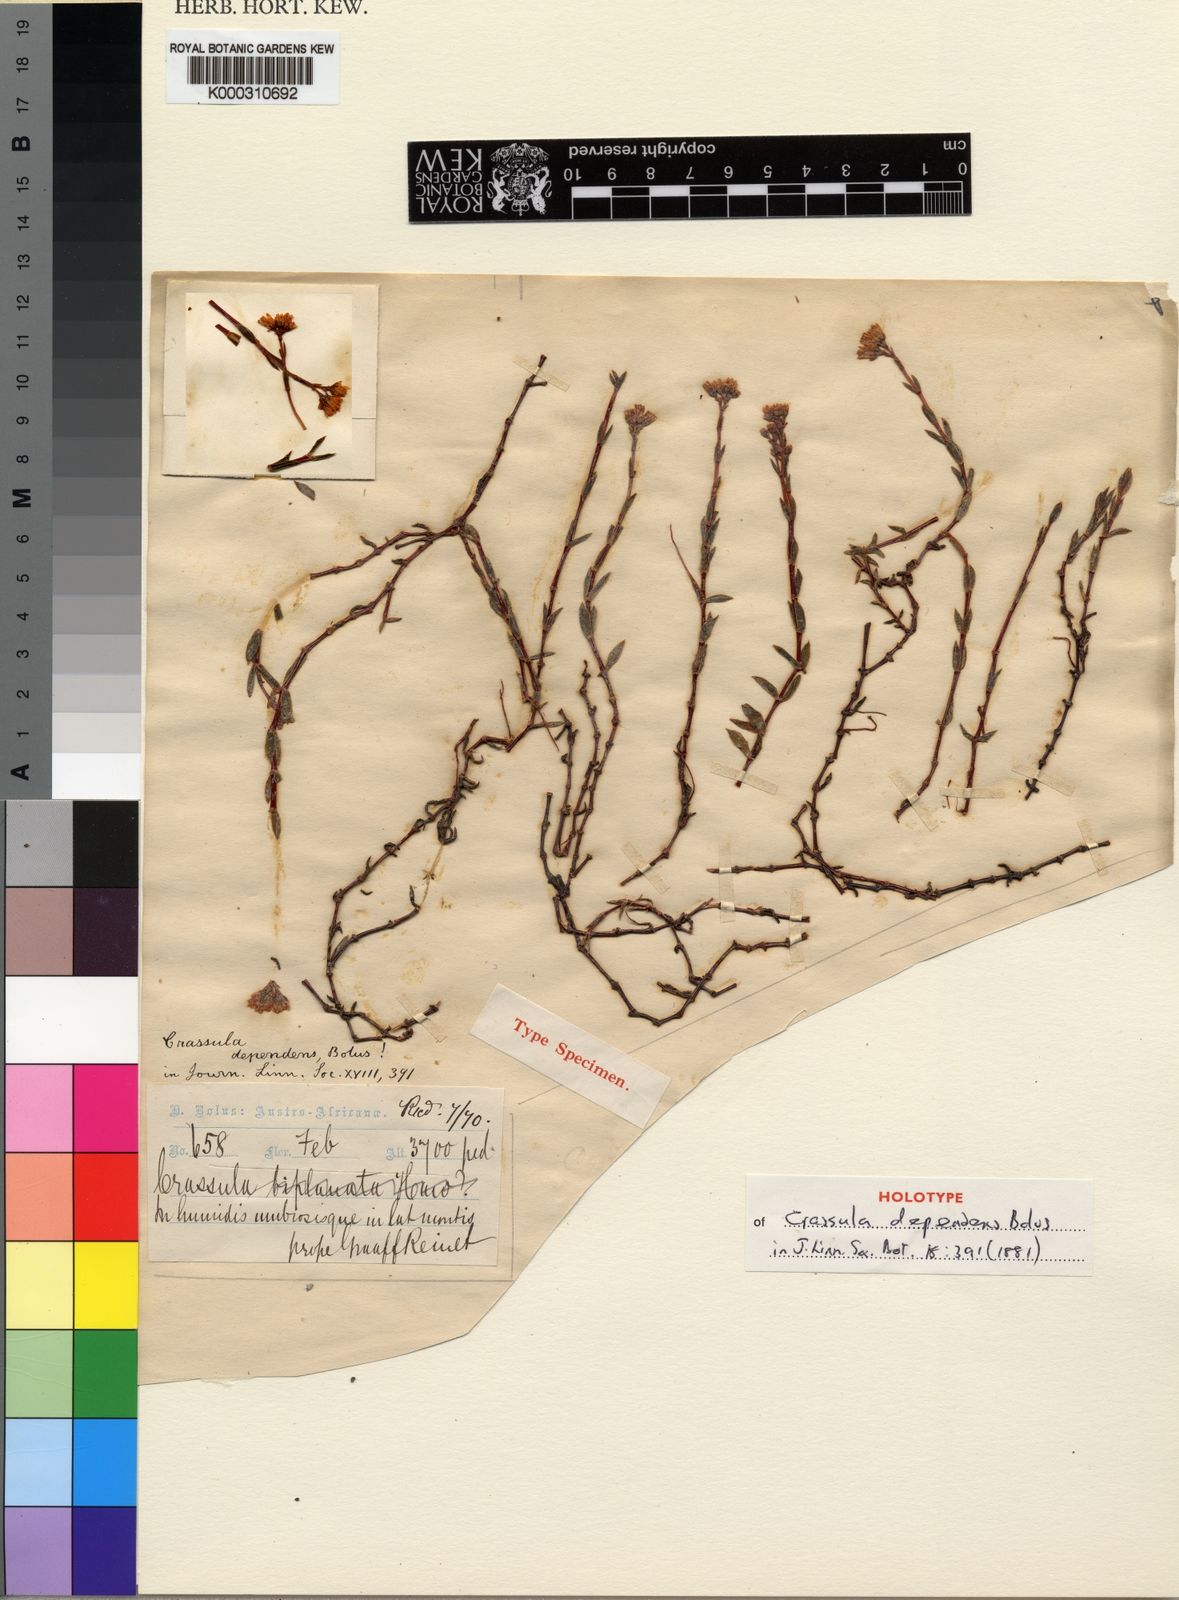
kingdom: Plantae
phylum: Tracheophyta
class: Magnoliopsida
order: Saxifragales
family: Crassulaceae
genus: Crassula
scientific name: Crassula dependens
